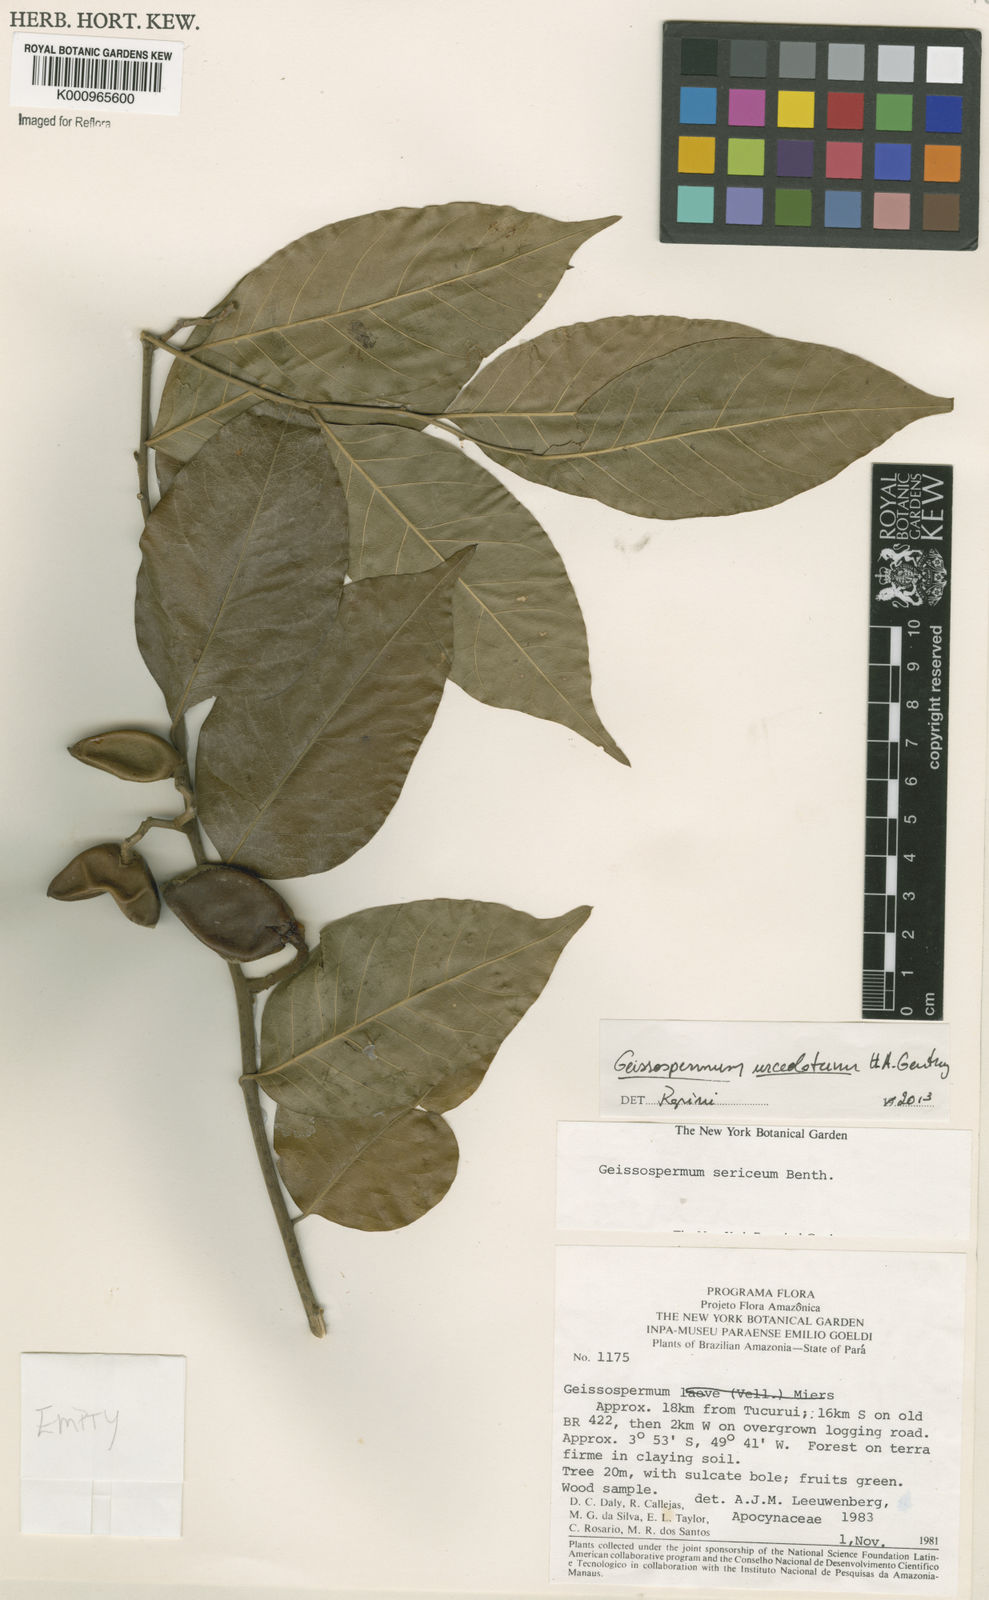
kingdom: Plantae
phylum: Tracheophyta
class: Magnoliopsida
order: Gentianales
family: Apocynaceae
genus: Geissospermum
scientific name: Geissospermum urceolatum
